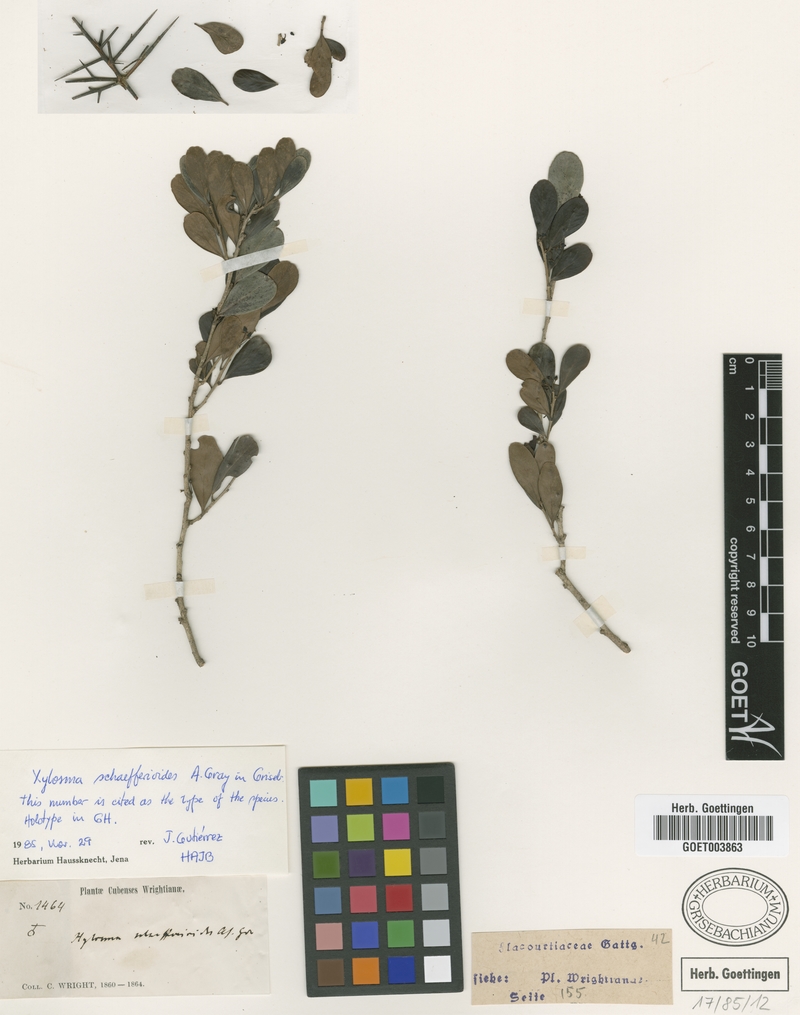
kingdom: Plantae
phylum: Tracheophyta
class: Magnoliopsida
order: Malpighiales
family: Salicaceae
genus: Xylosma
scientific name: Xylosma schaefferioides
